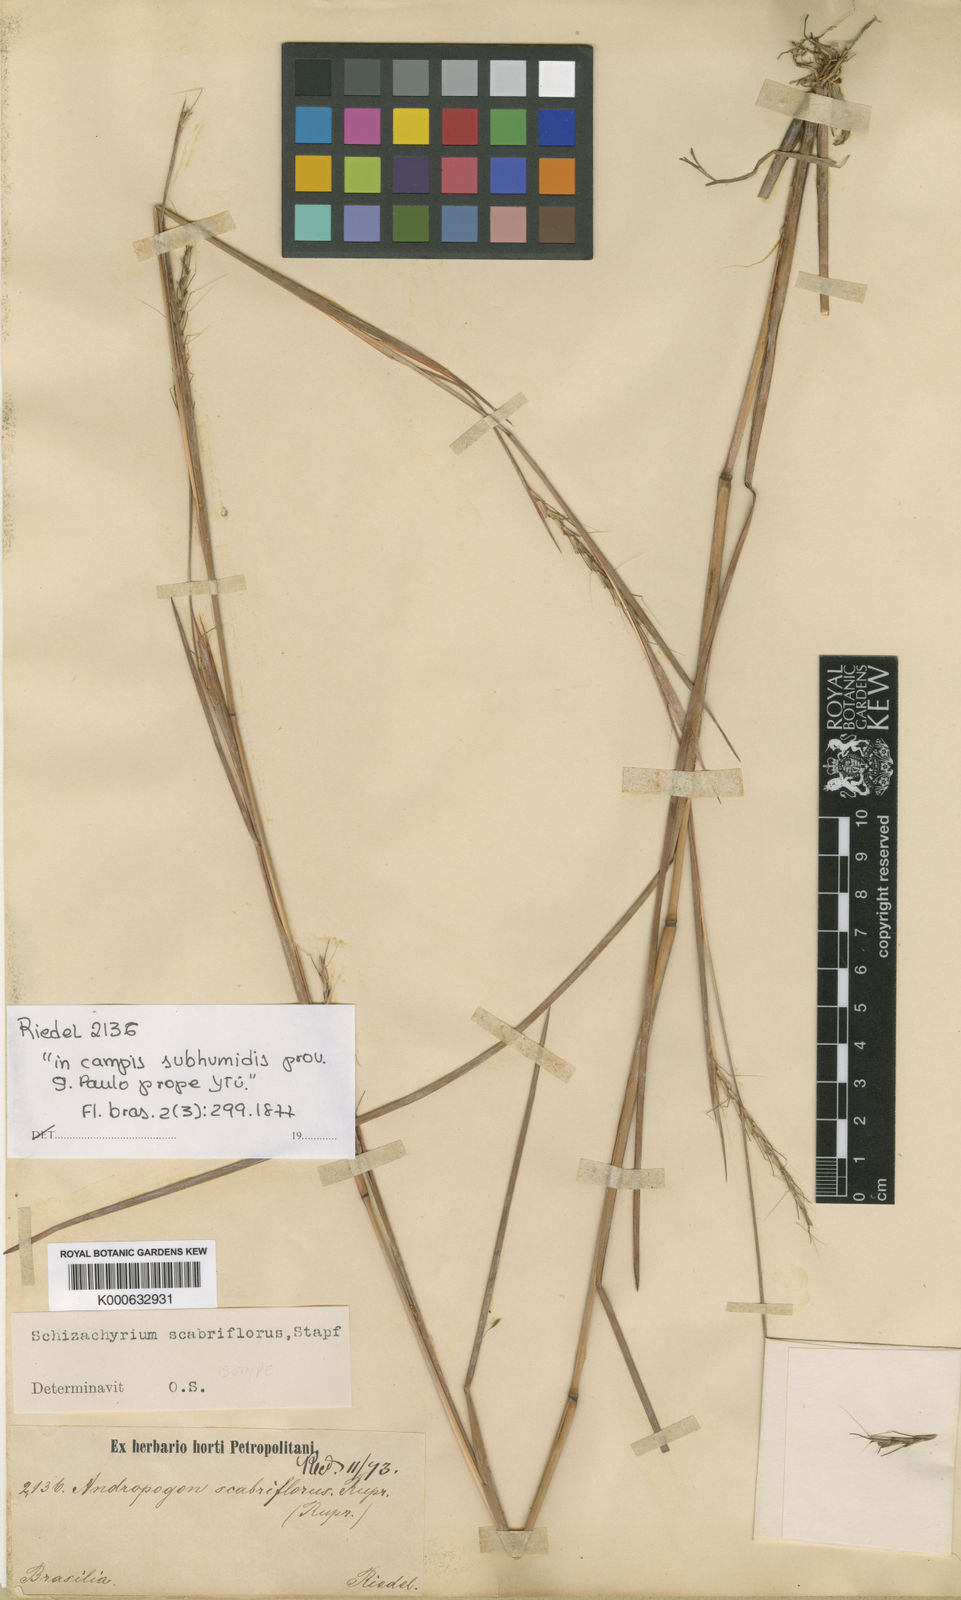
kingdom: Plantae
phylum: Tracheophyta
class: Liliopsida
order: Poales
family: Poaceae
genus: Schizachyrium
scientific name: Schizachyrium
